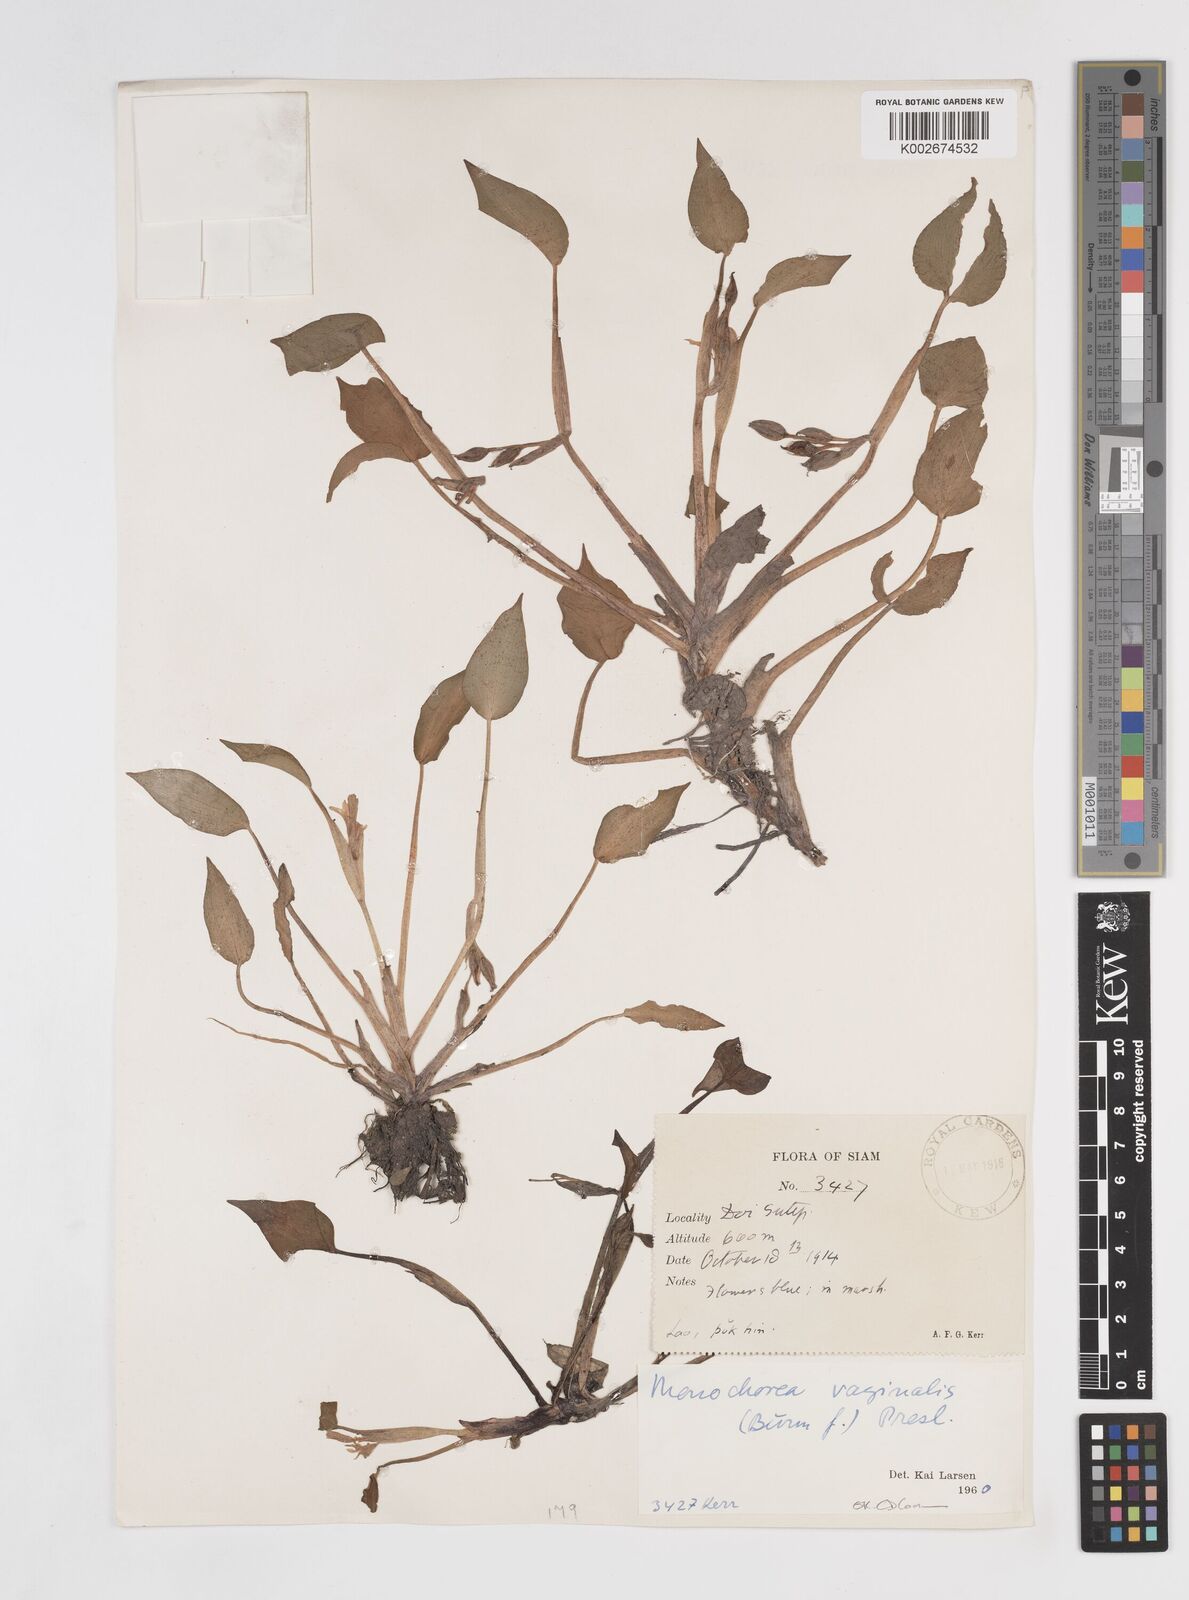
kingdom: Plantae
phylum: Tracheophyta
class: Liliopsida
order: Commelinales
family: Pontederiaceae
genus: Pontederia
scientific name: Pontederia vaginalis
